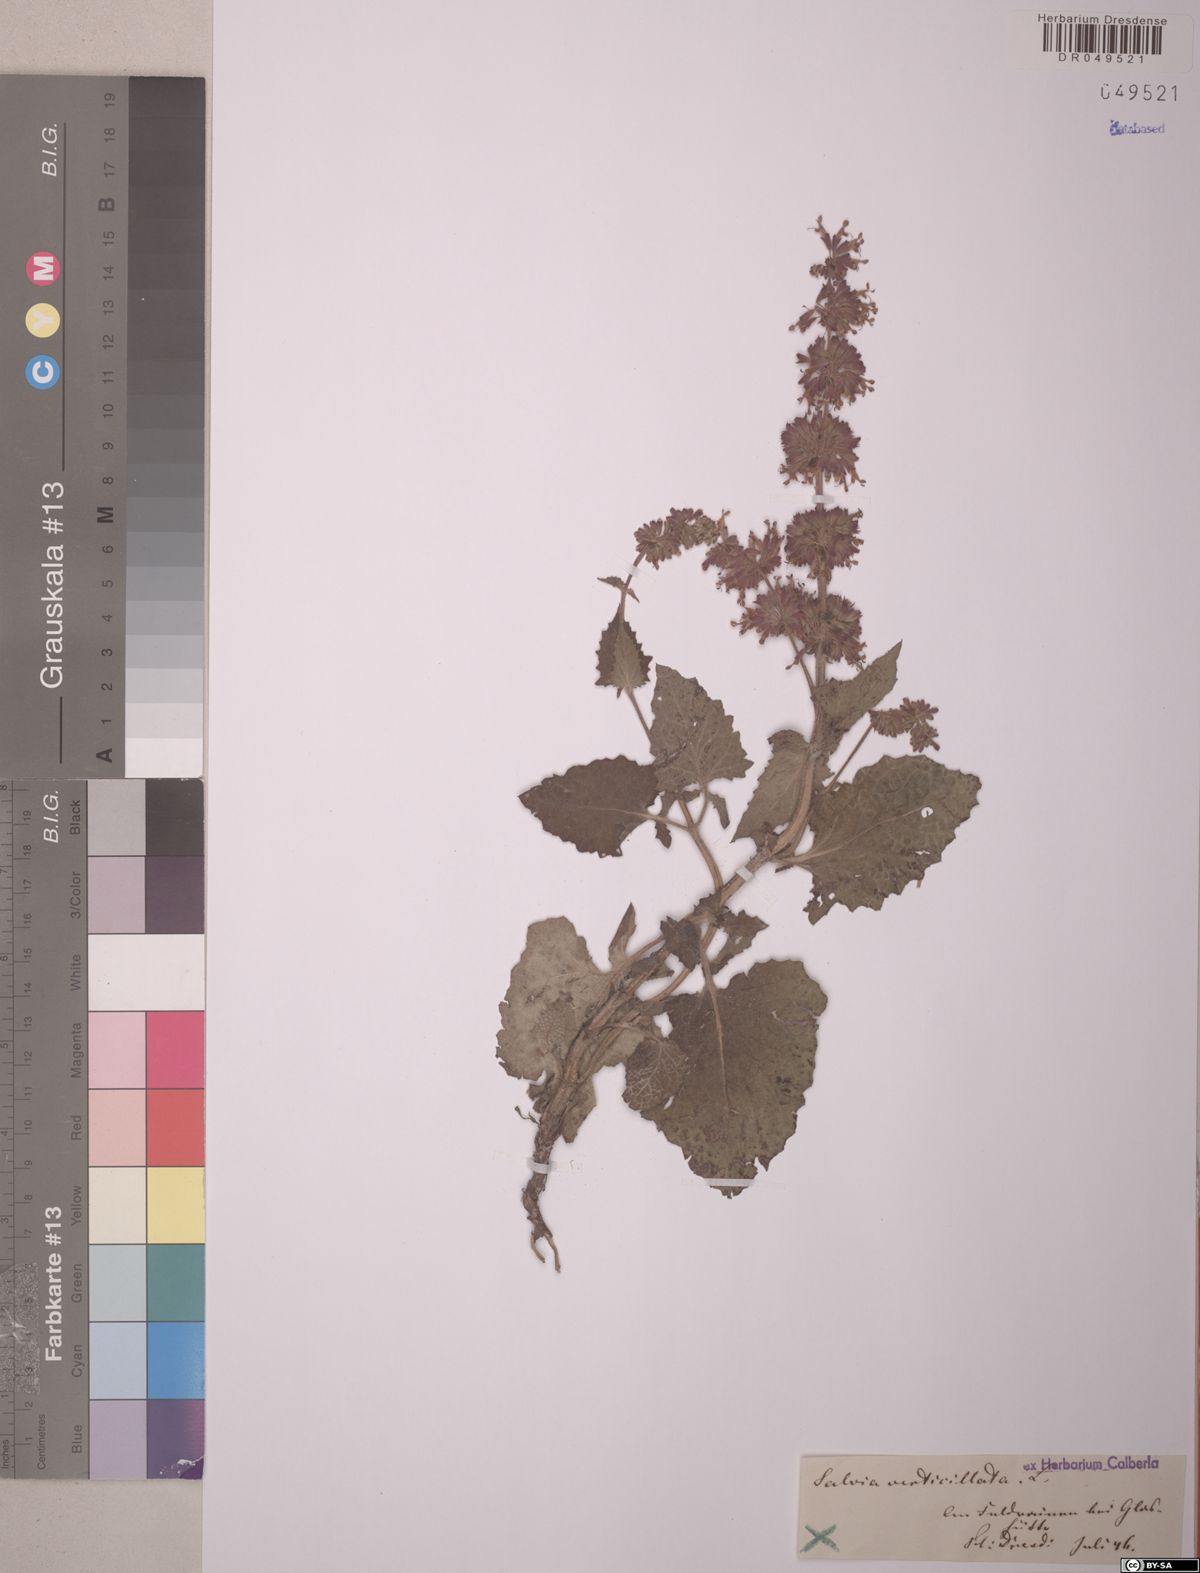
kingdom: Plantae
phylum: Tracheophyta
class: Magnoliopsida
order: Lamiales
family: Lamiaceae
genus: Salvia
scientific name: Salvia verticillata
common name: Whorled clary
